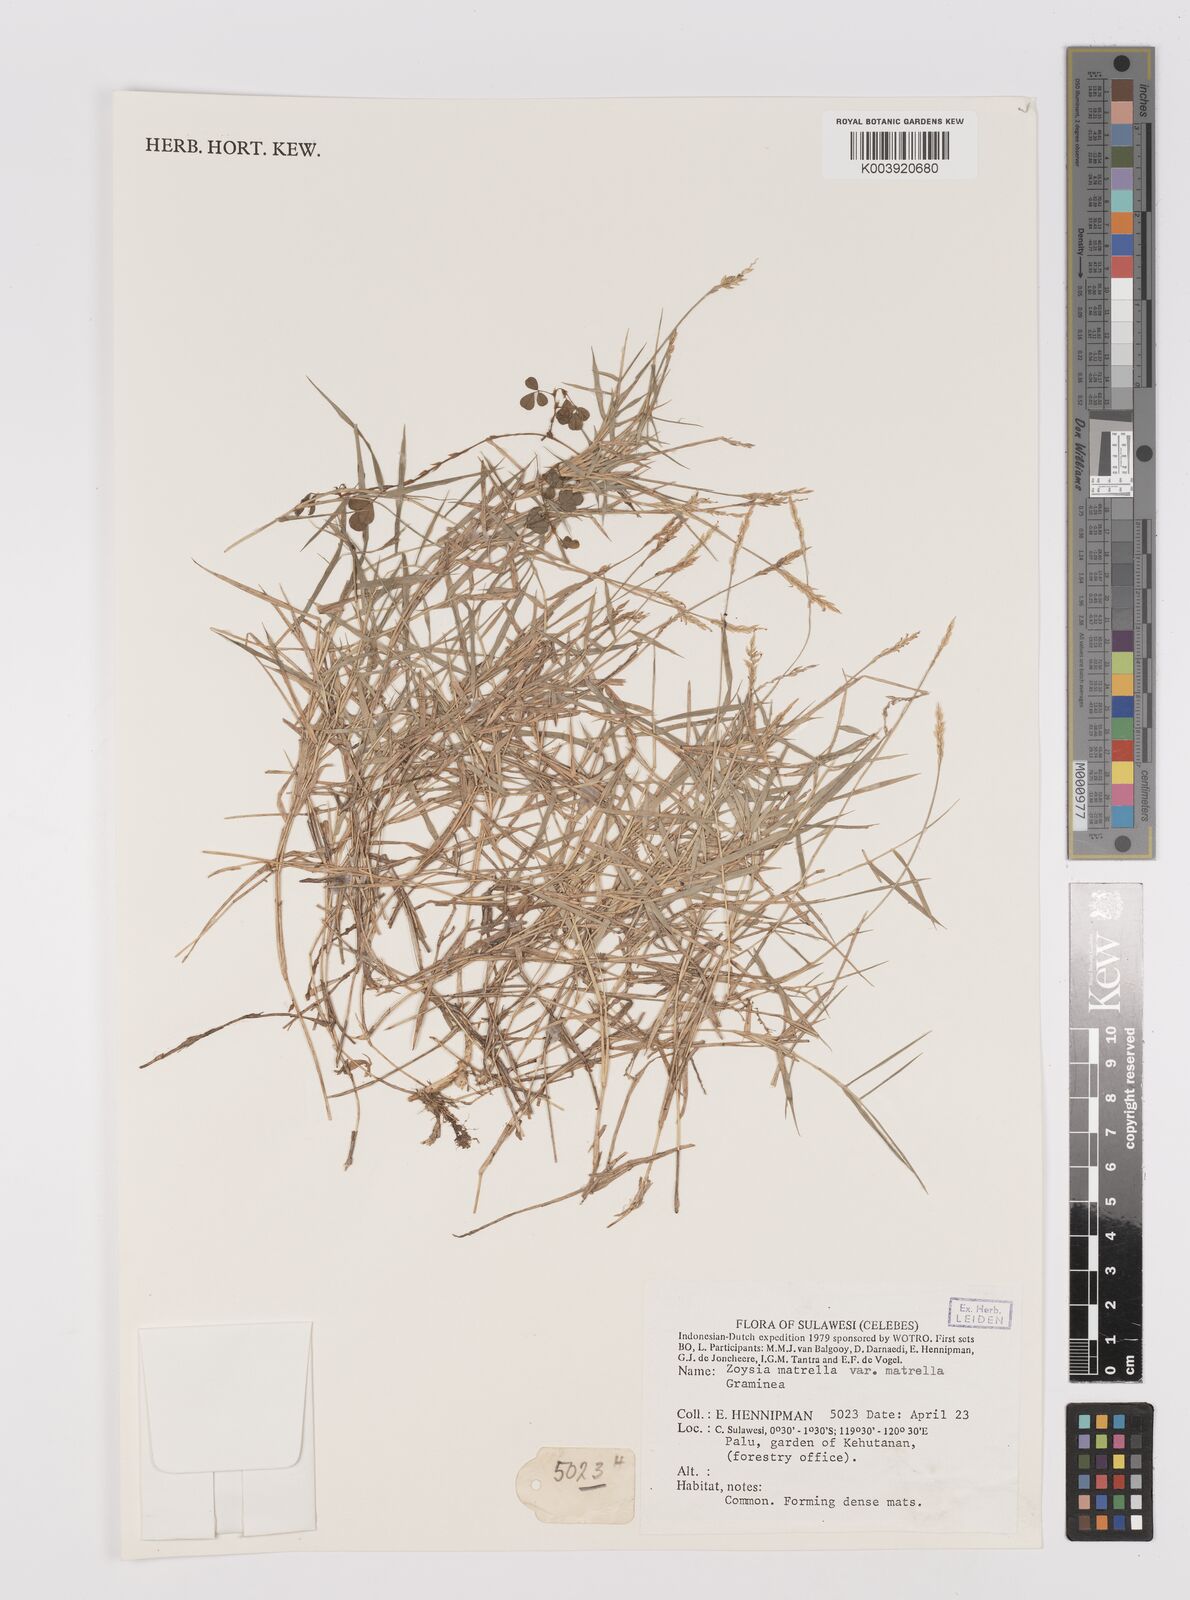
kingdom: Plantae
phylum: Tracheophyta
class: Liliopsida
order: Poales
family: Poaceae
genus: Zoysia
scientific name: Zoysia matrella
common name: Manila grass
